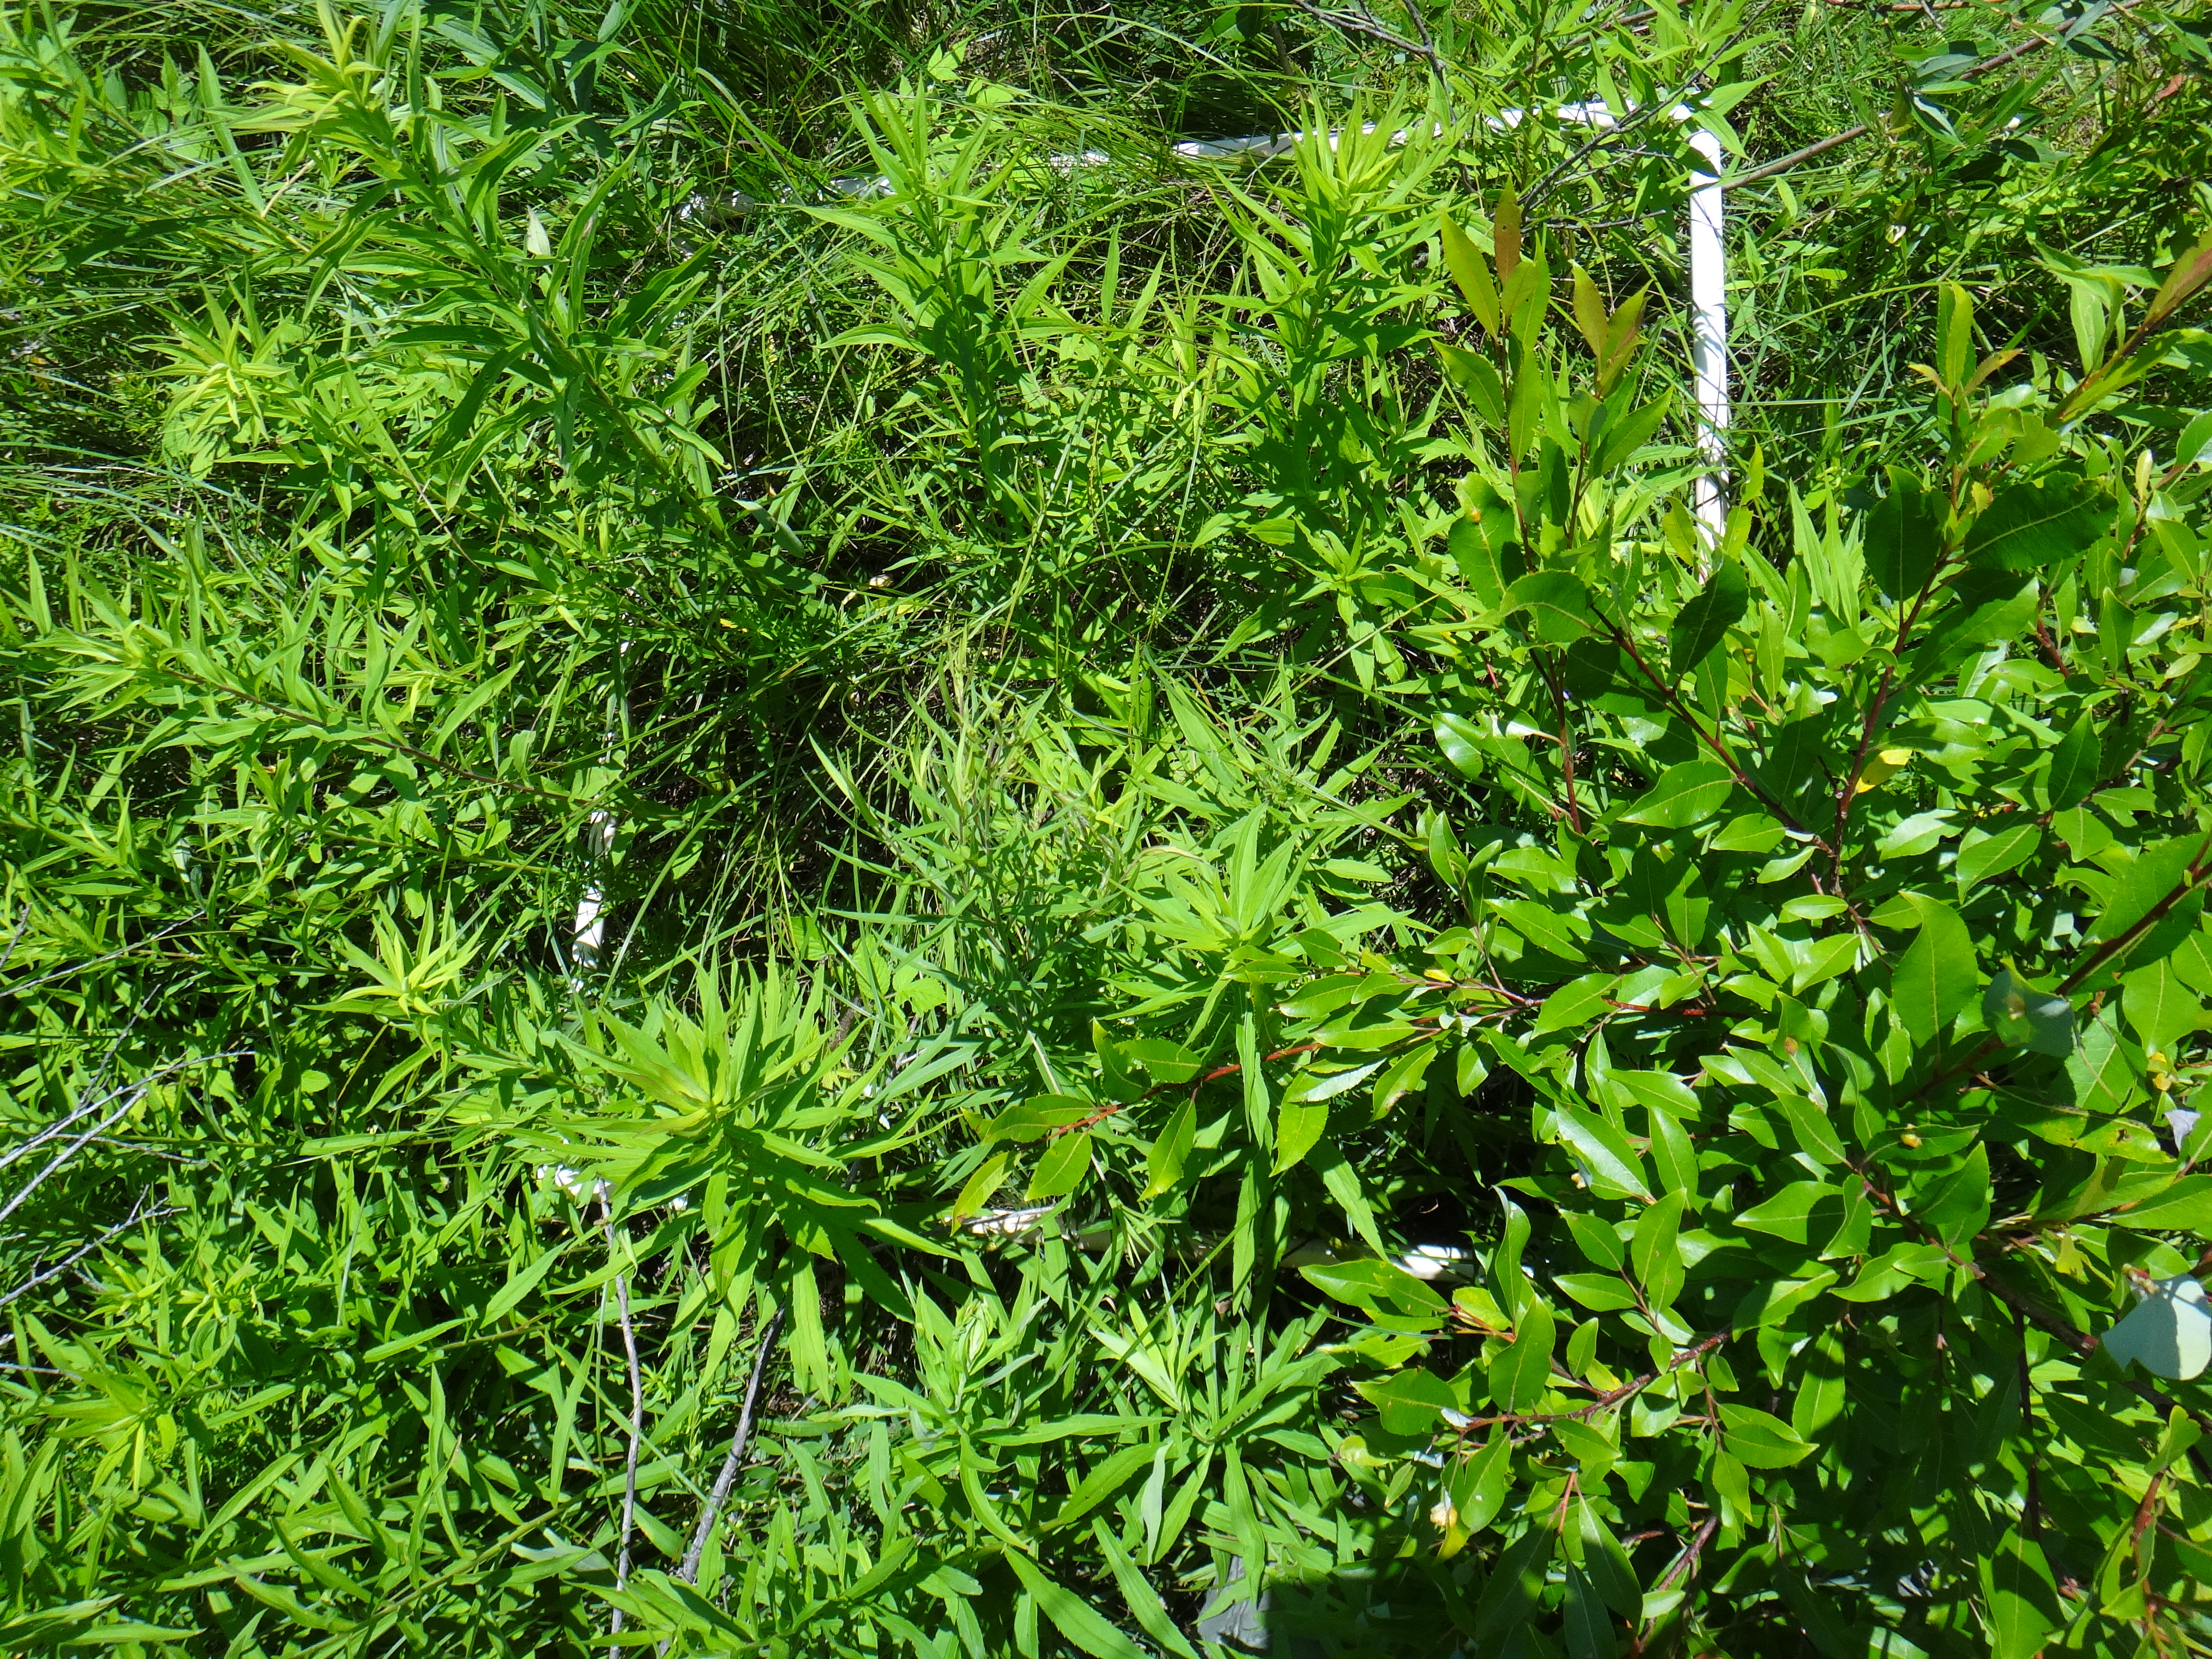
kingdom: Plantae
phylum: Tracheophyta
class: Liliopsida
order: Poales
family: Cyperaceae
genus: Carex
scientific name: Carex stricta
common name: Hummock sedge
